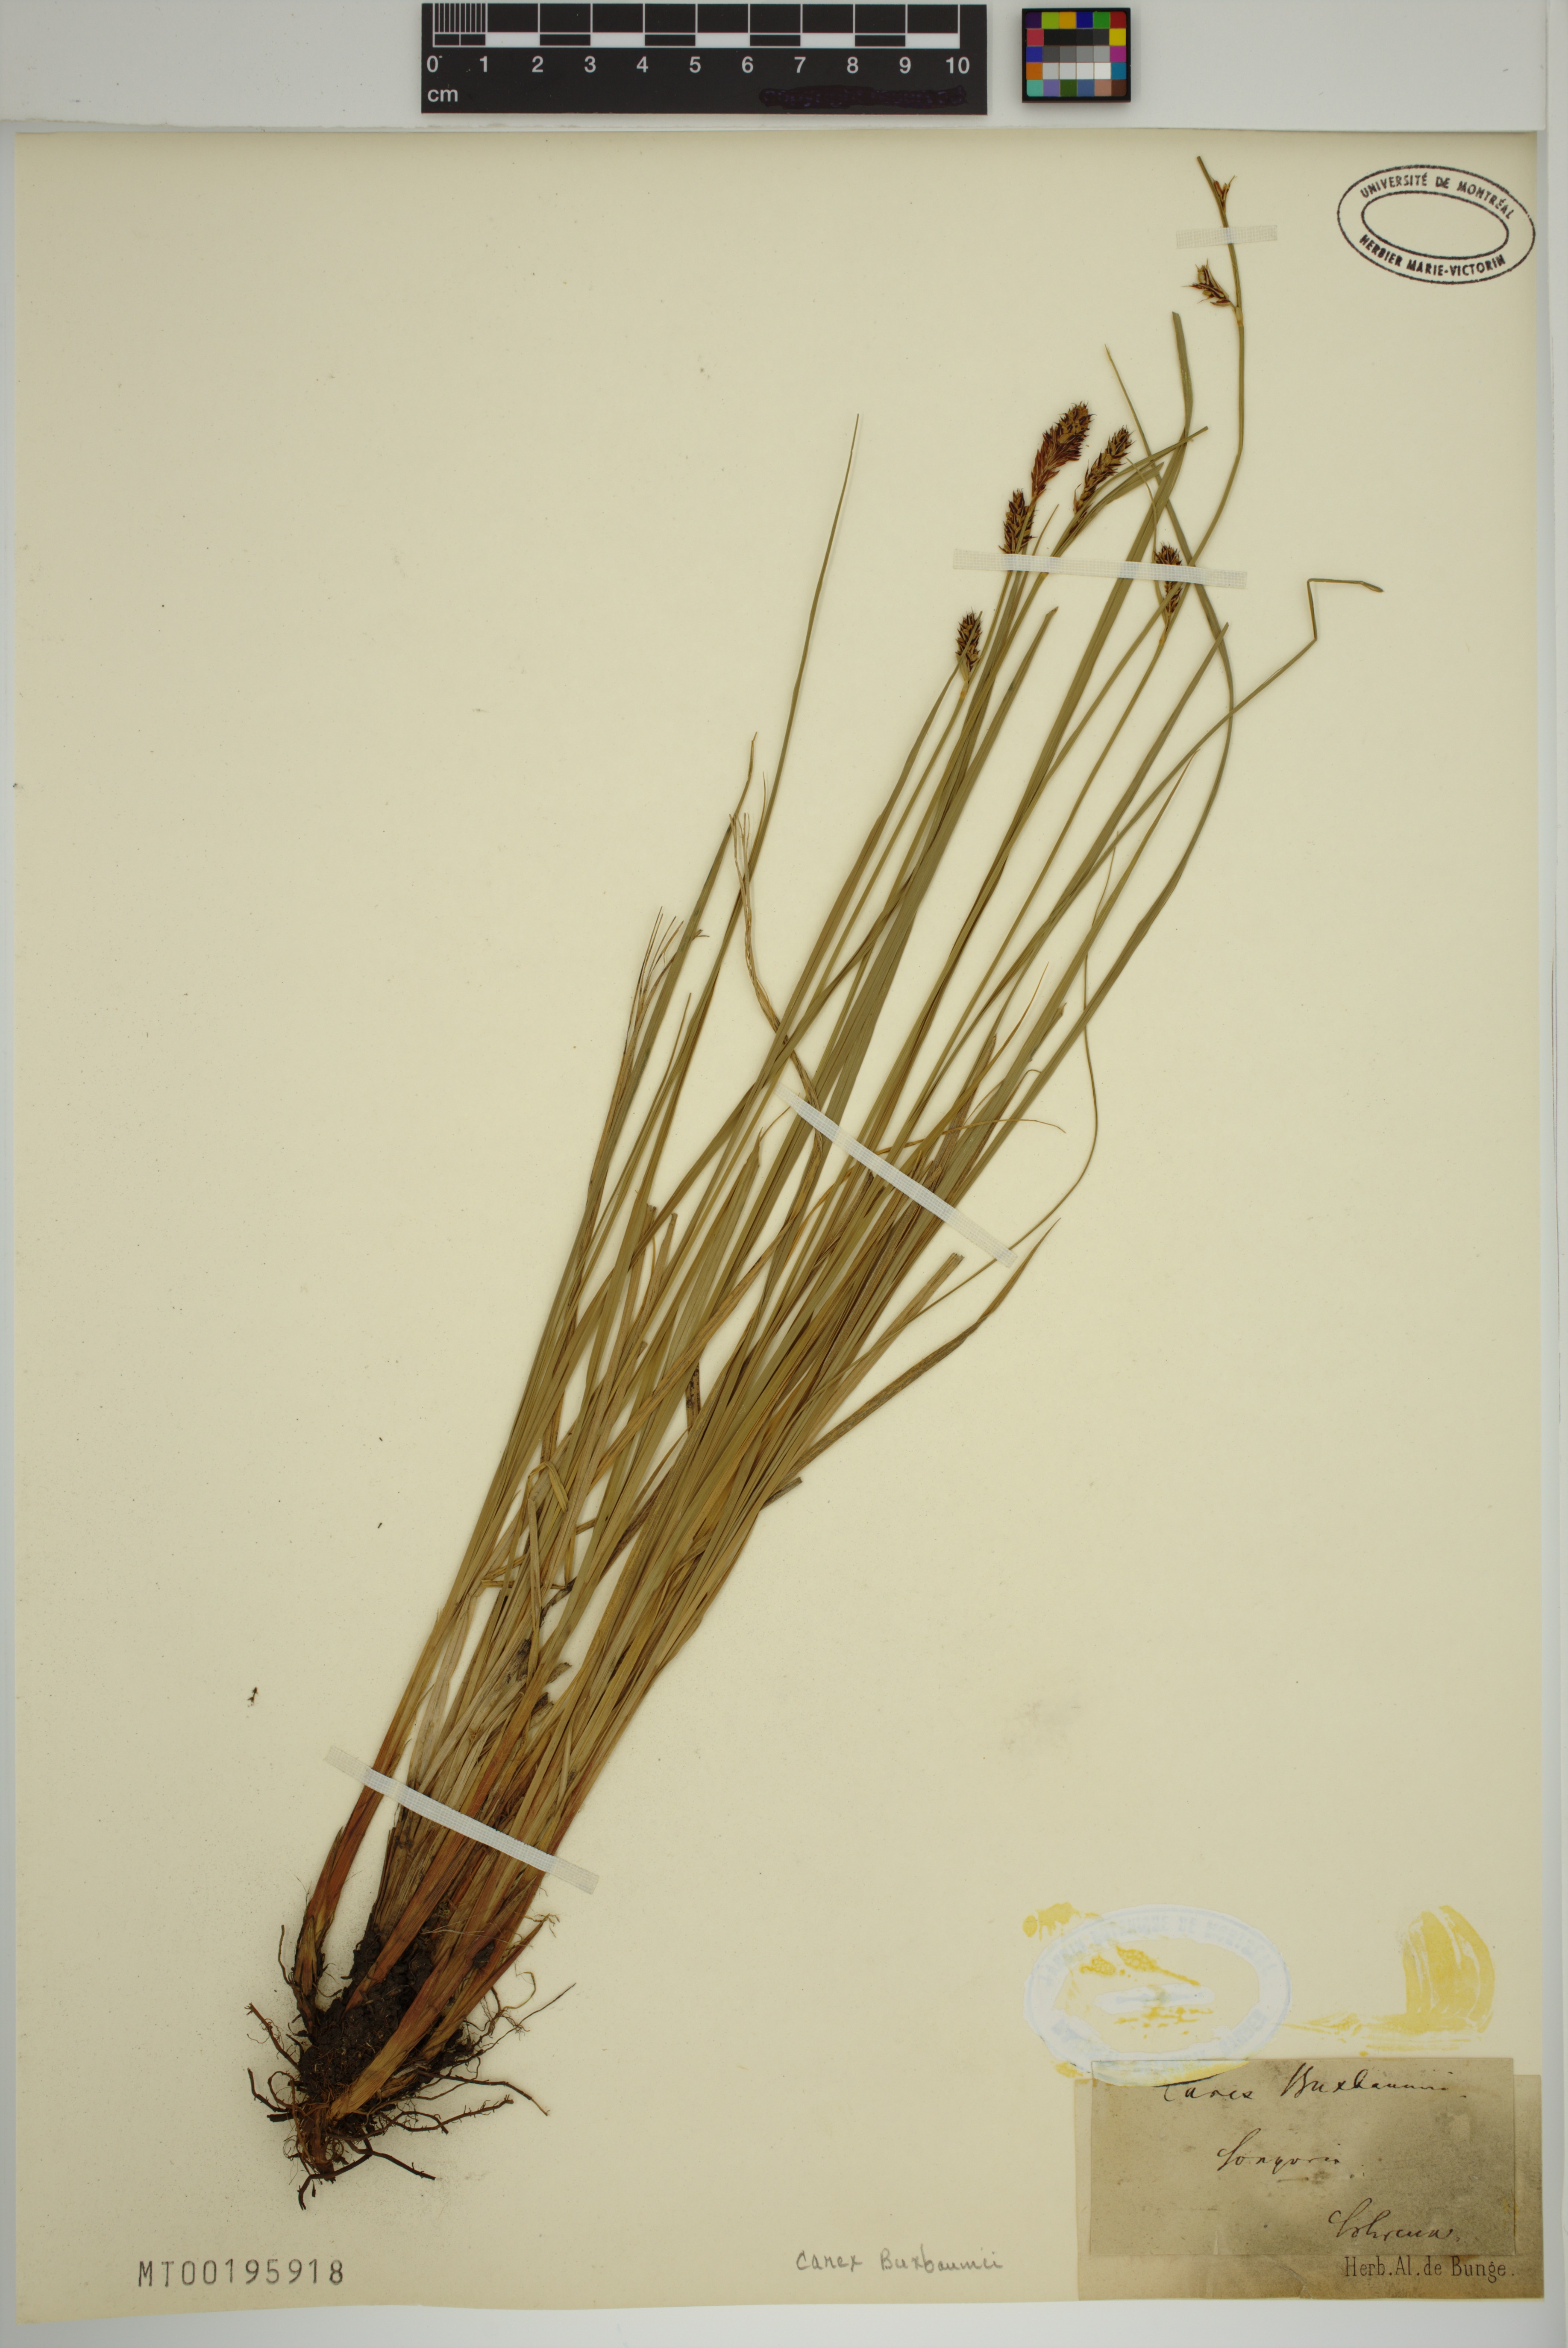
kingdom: Plantae
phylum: Tracheophyta
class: Liliopsida
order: Poales
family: Cyperaceae
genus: Carex
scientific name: Carex buxbaumii
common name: Club sedge
